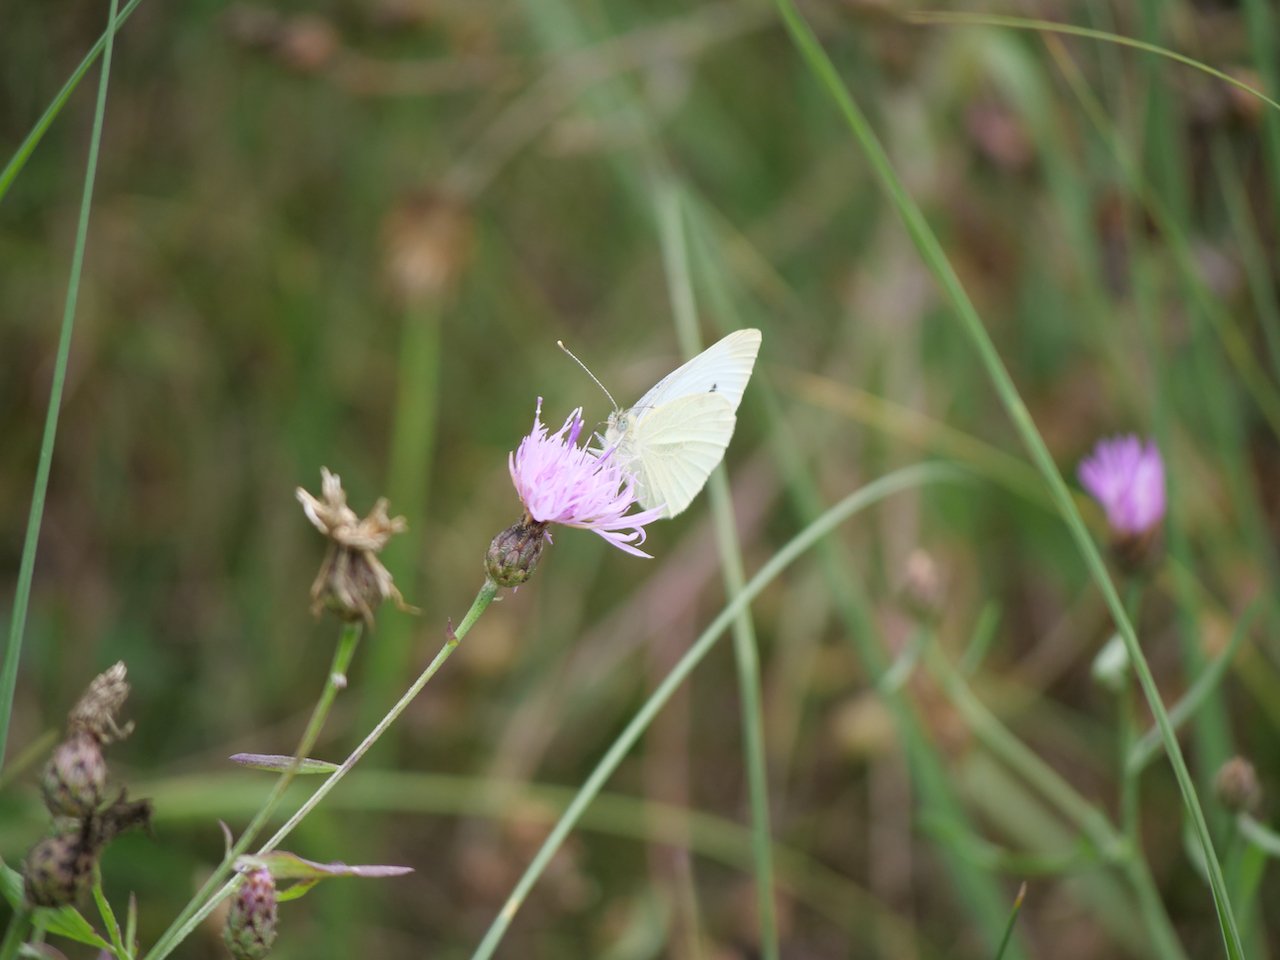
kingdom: Animalia
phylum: Arthropoda
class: Insecta
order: Lepidoptera
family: Pieridae
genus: Pieris
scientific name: Pieris rapae
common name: Cabbage White
